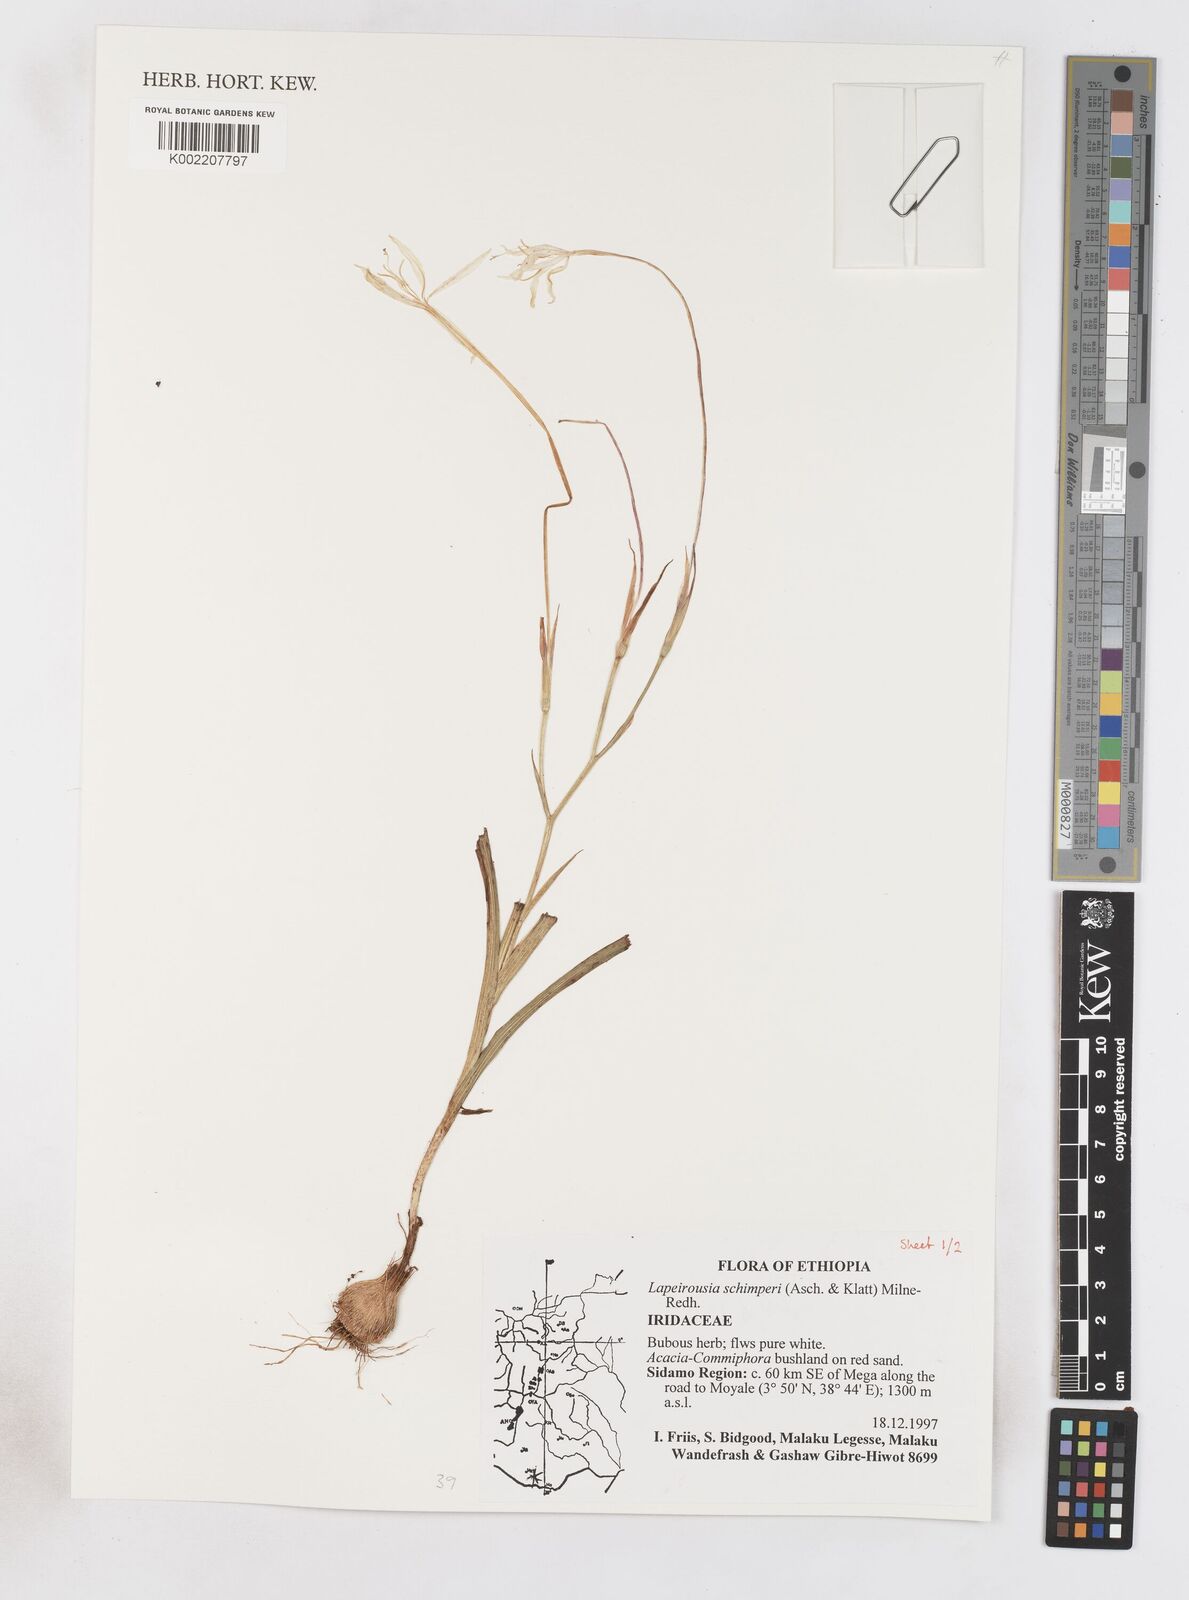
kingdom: Plantae
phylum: Tracheophyta
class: Liliopsida
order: Asparagales
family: Iridaceae
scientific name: Iridaceae
